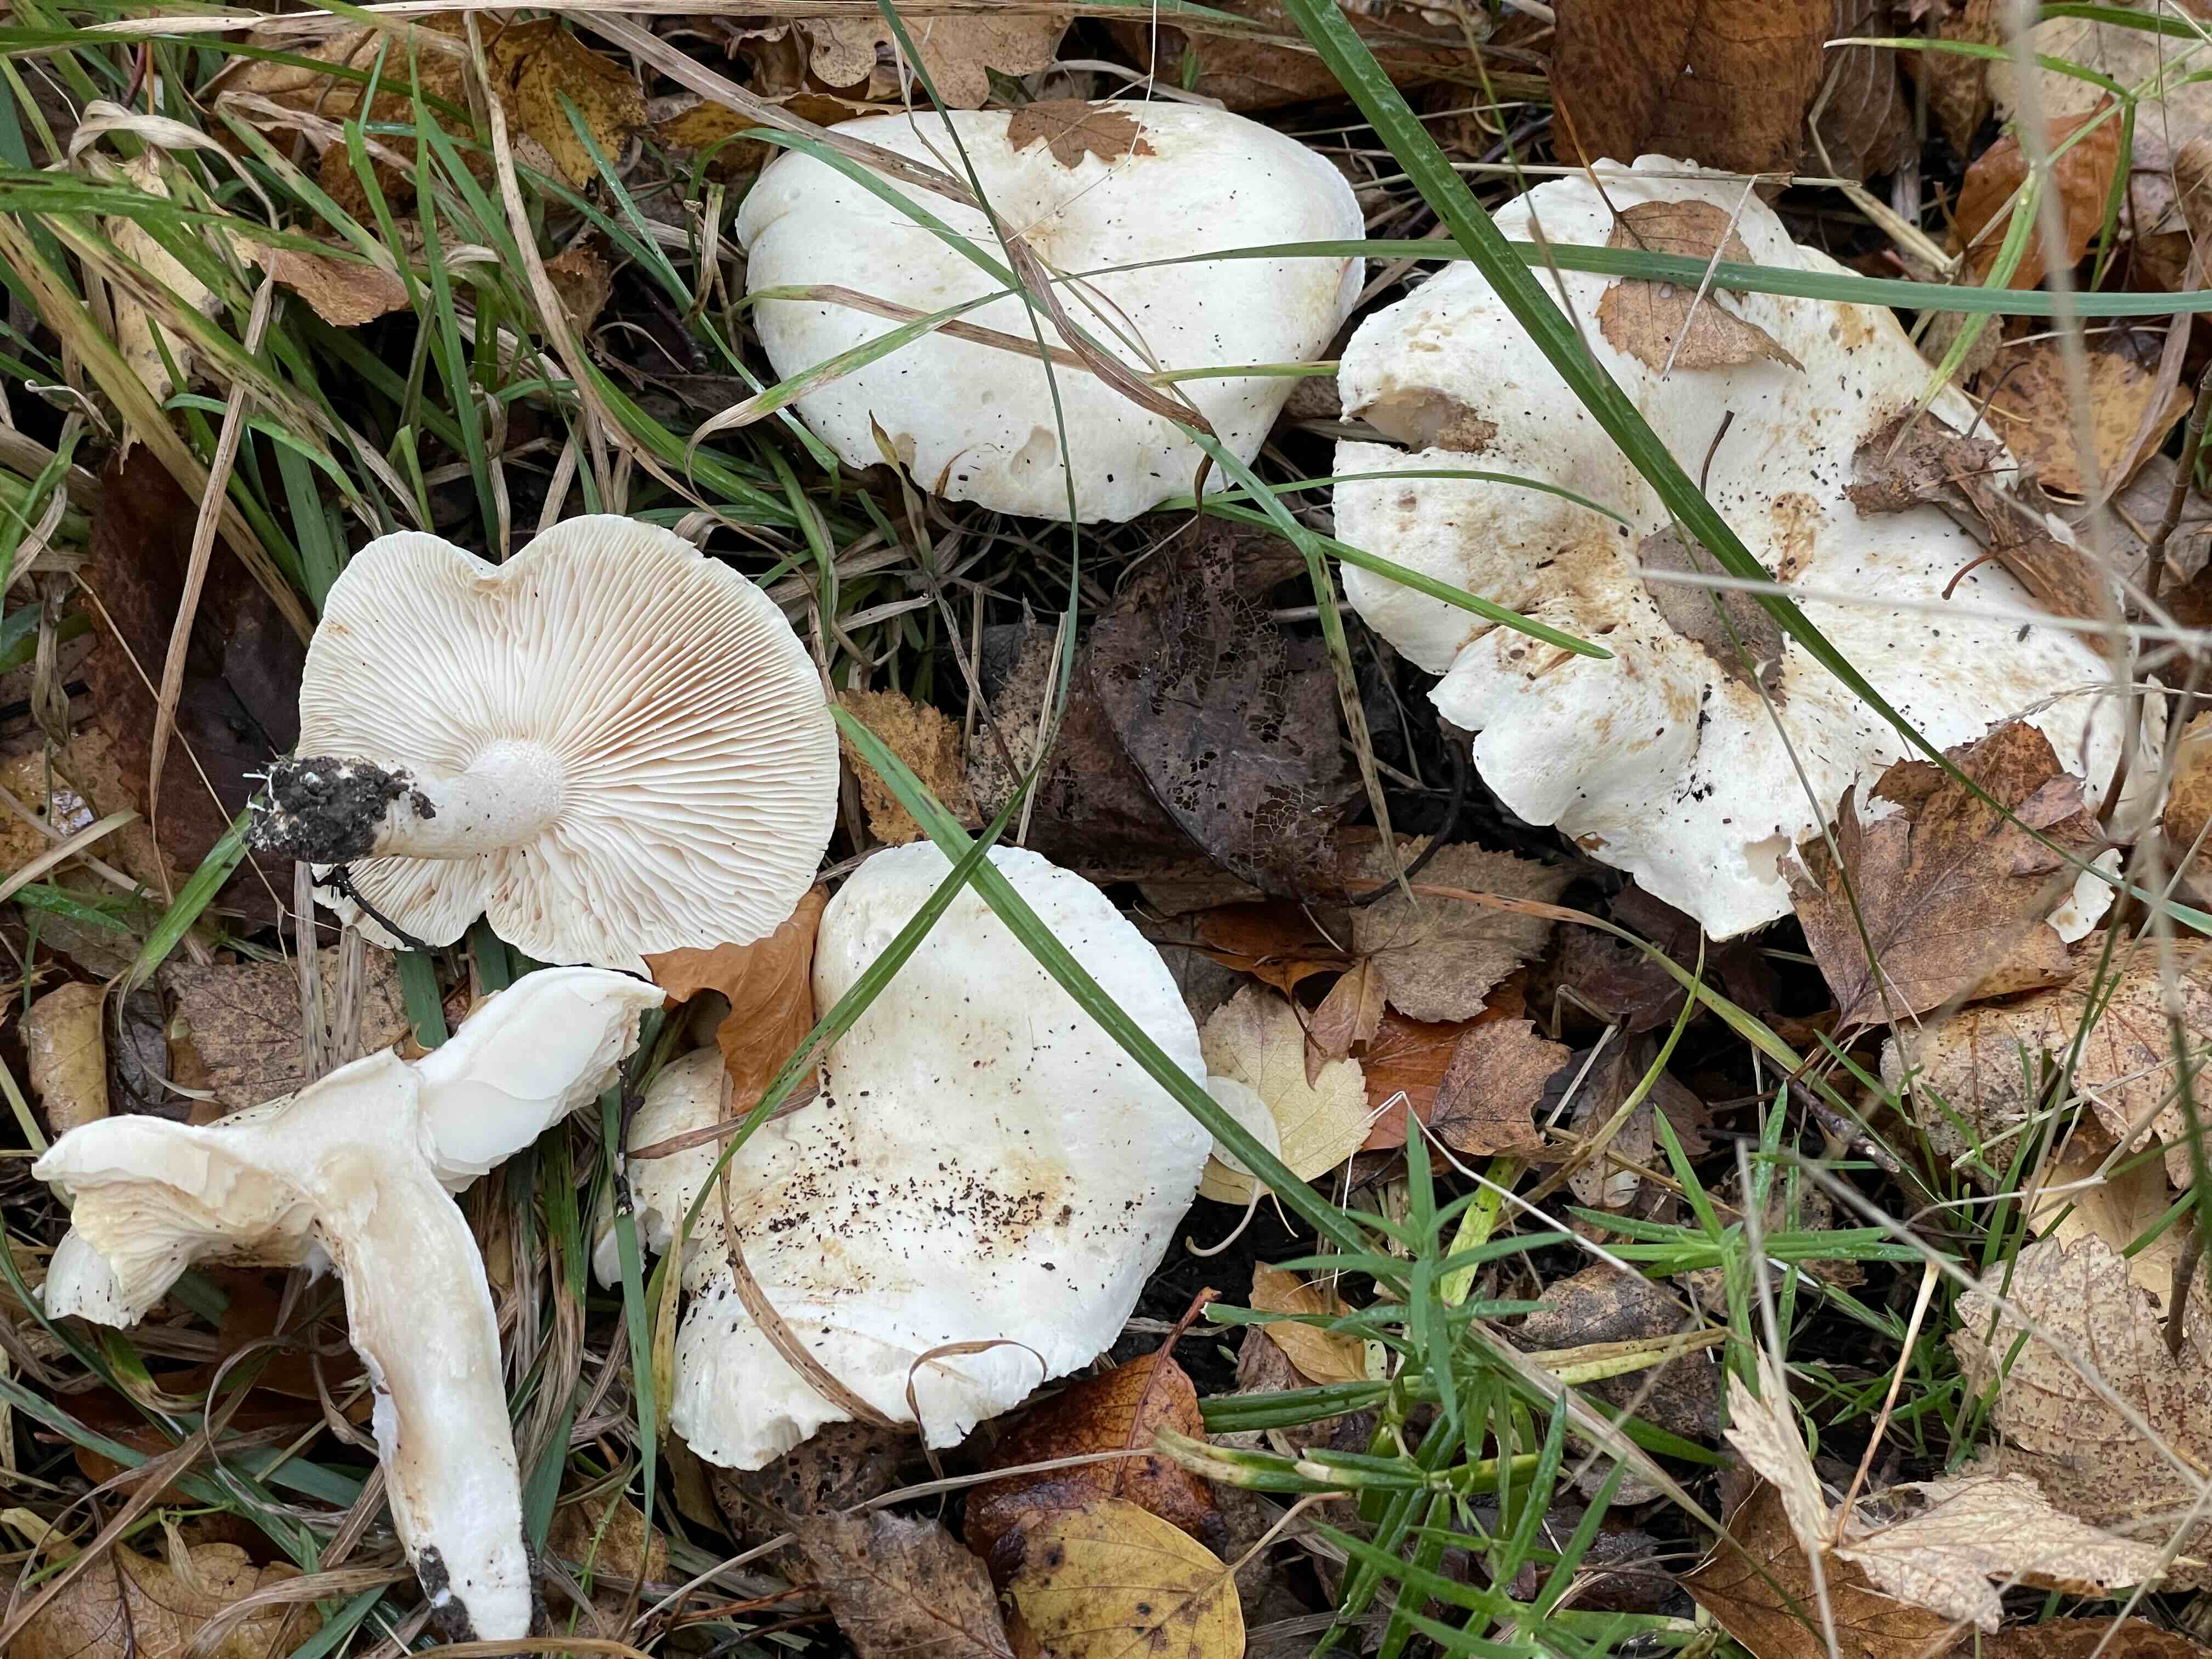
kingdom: Fungi
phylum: Basidiomycota
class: Agaricomycetes
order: Agaricales
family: Tricholomataceae
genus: Tricholoma
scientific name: Tricholoma stiparophyllum
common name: hvid ridderhat
